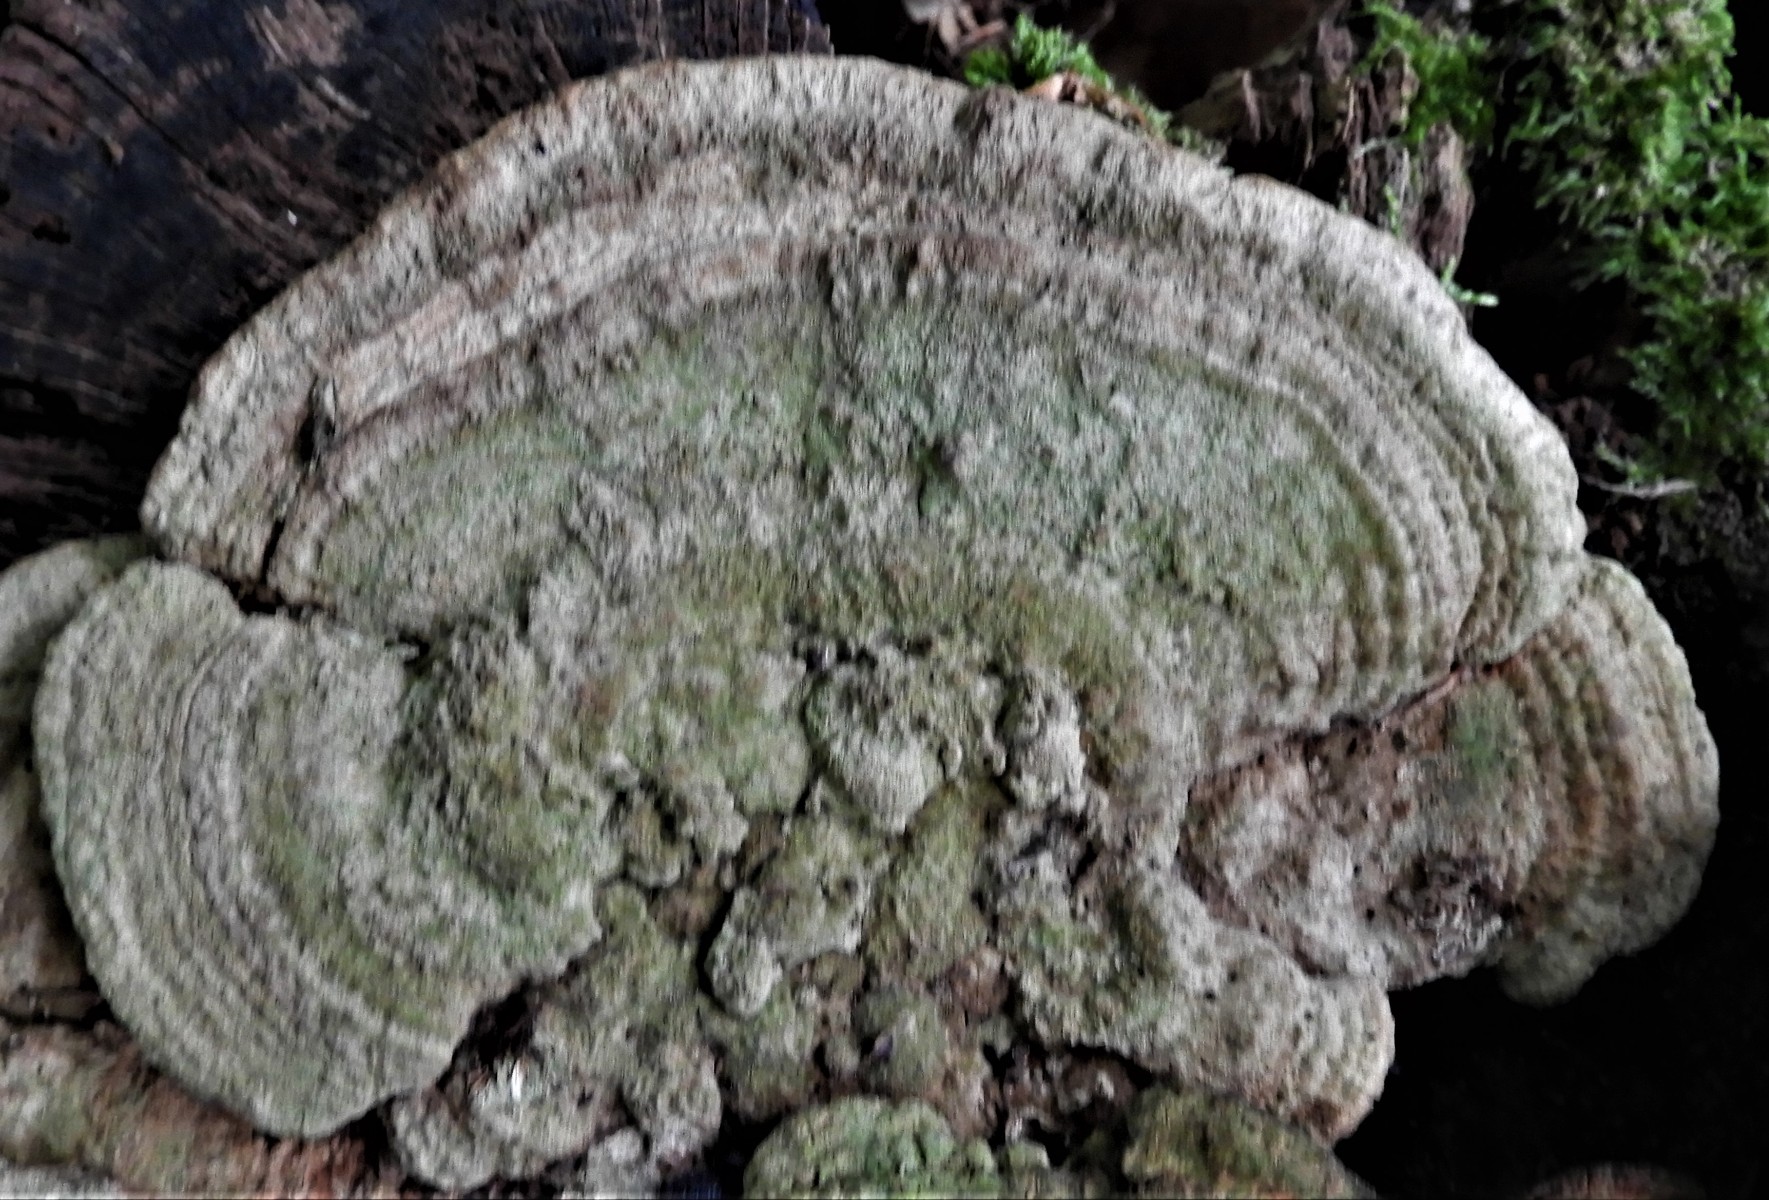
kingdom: Fungi
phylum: Basidiomycota
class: Agaricomycetes
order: Polyporales
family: Fomitopsidaceae
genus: Daedalea
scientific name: Daedalea quercina
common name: ege-labyrintsvamp
